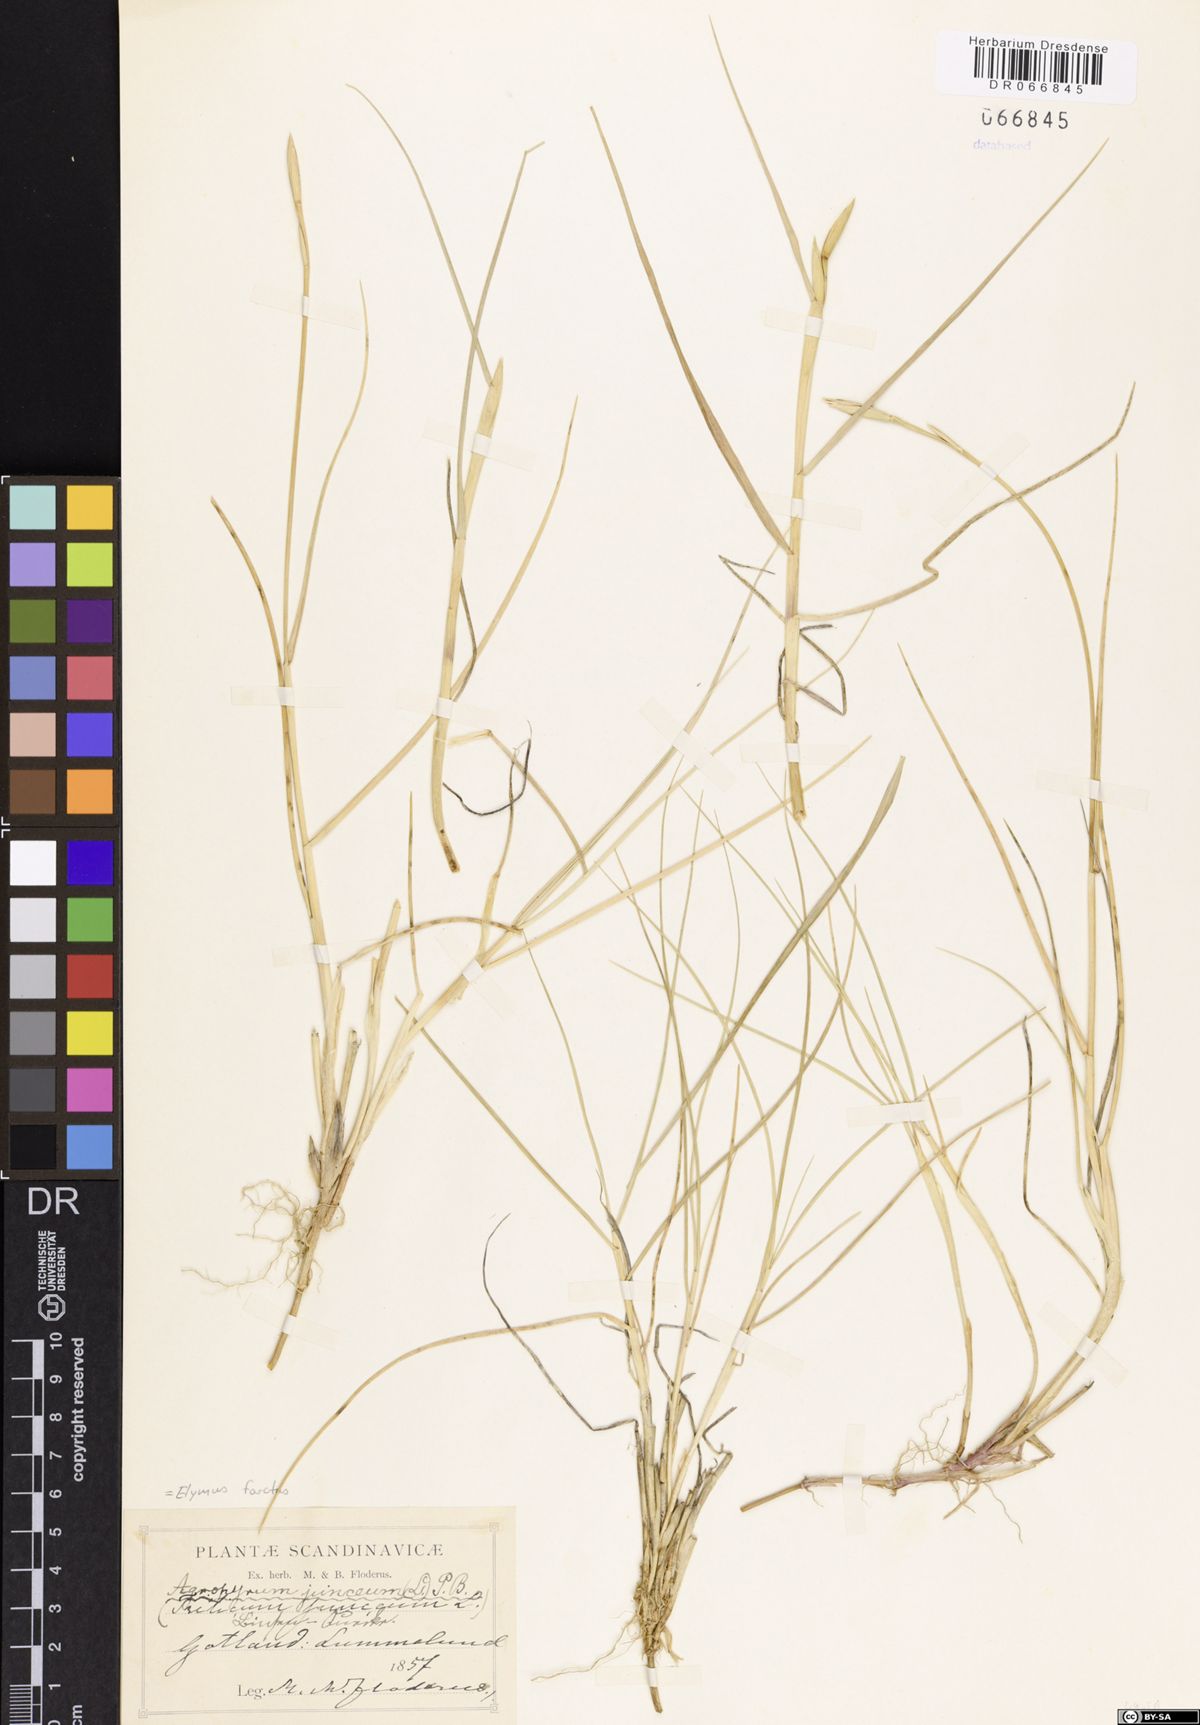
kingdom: Plantae
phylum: Tracheophyta
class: Liliopsida
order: Poales
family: Poaceae
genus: Thinopyrum
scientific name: Thinopyrum junceum
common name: Russian wheatgrass
